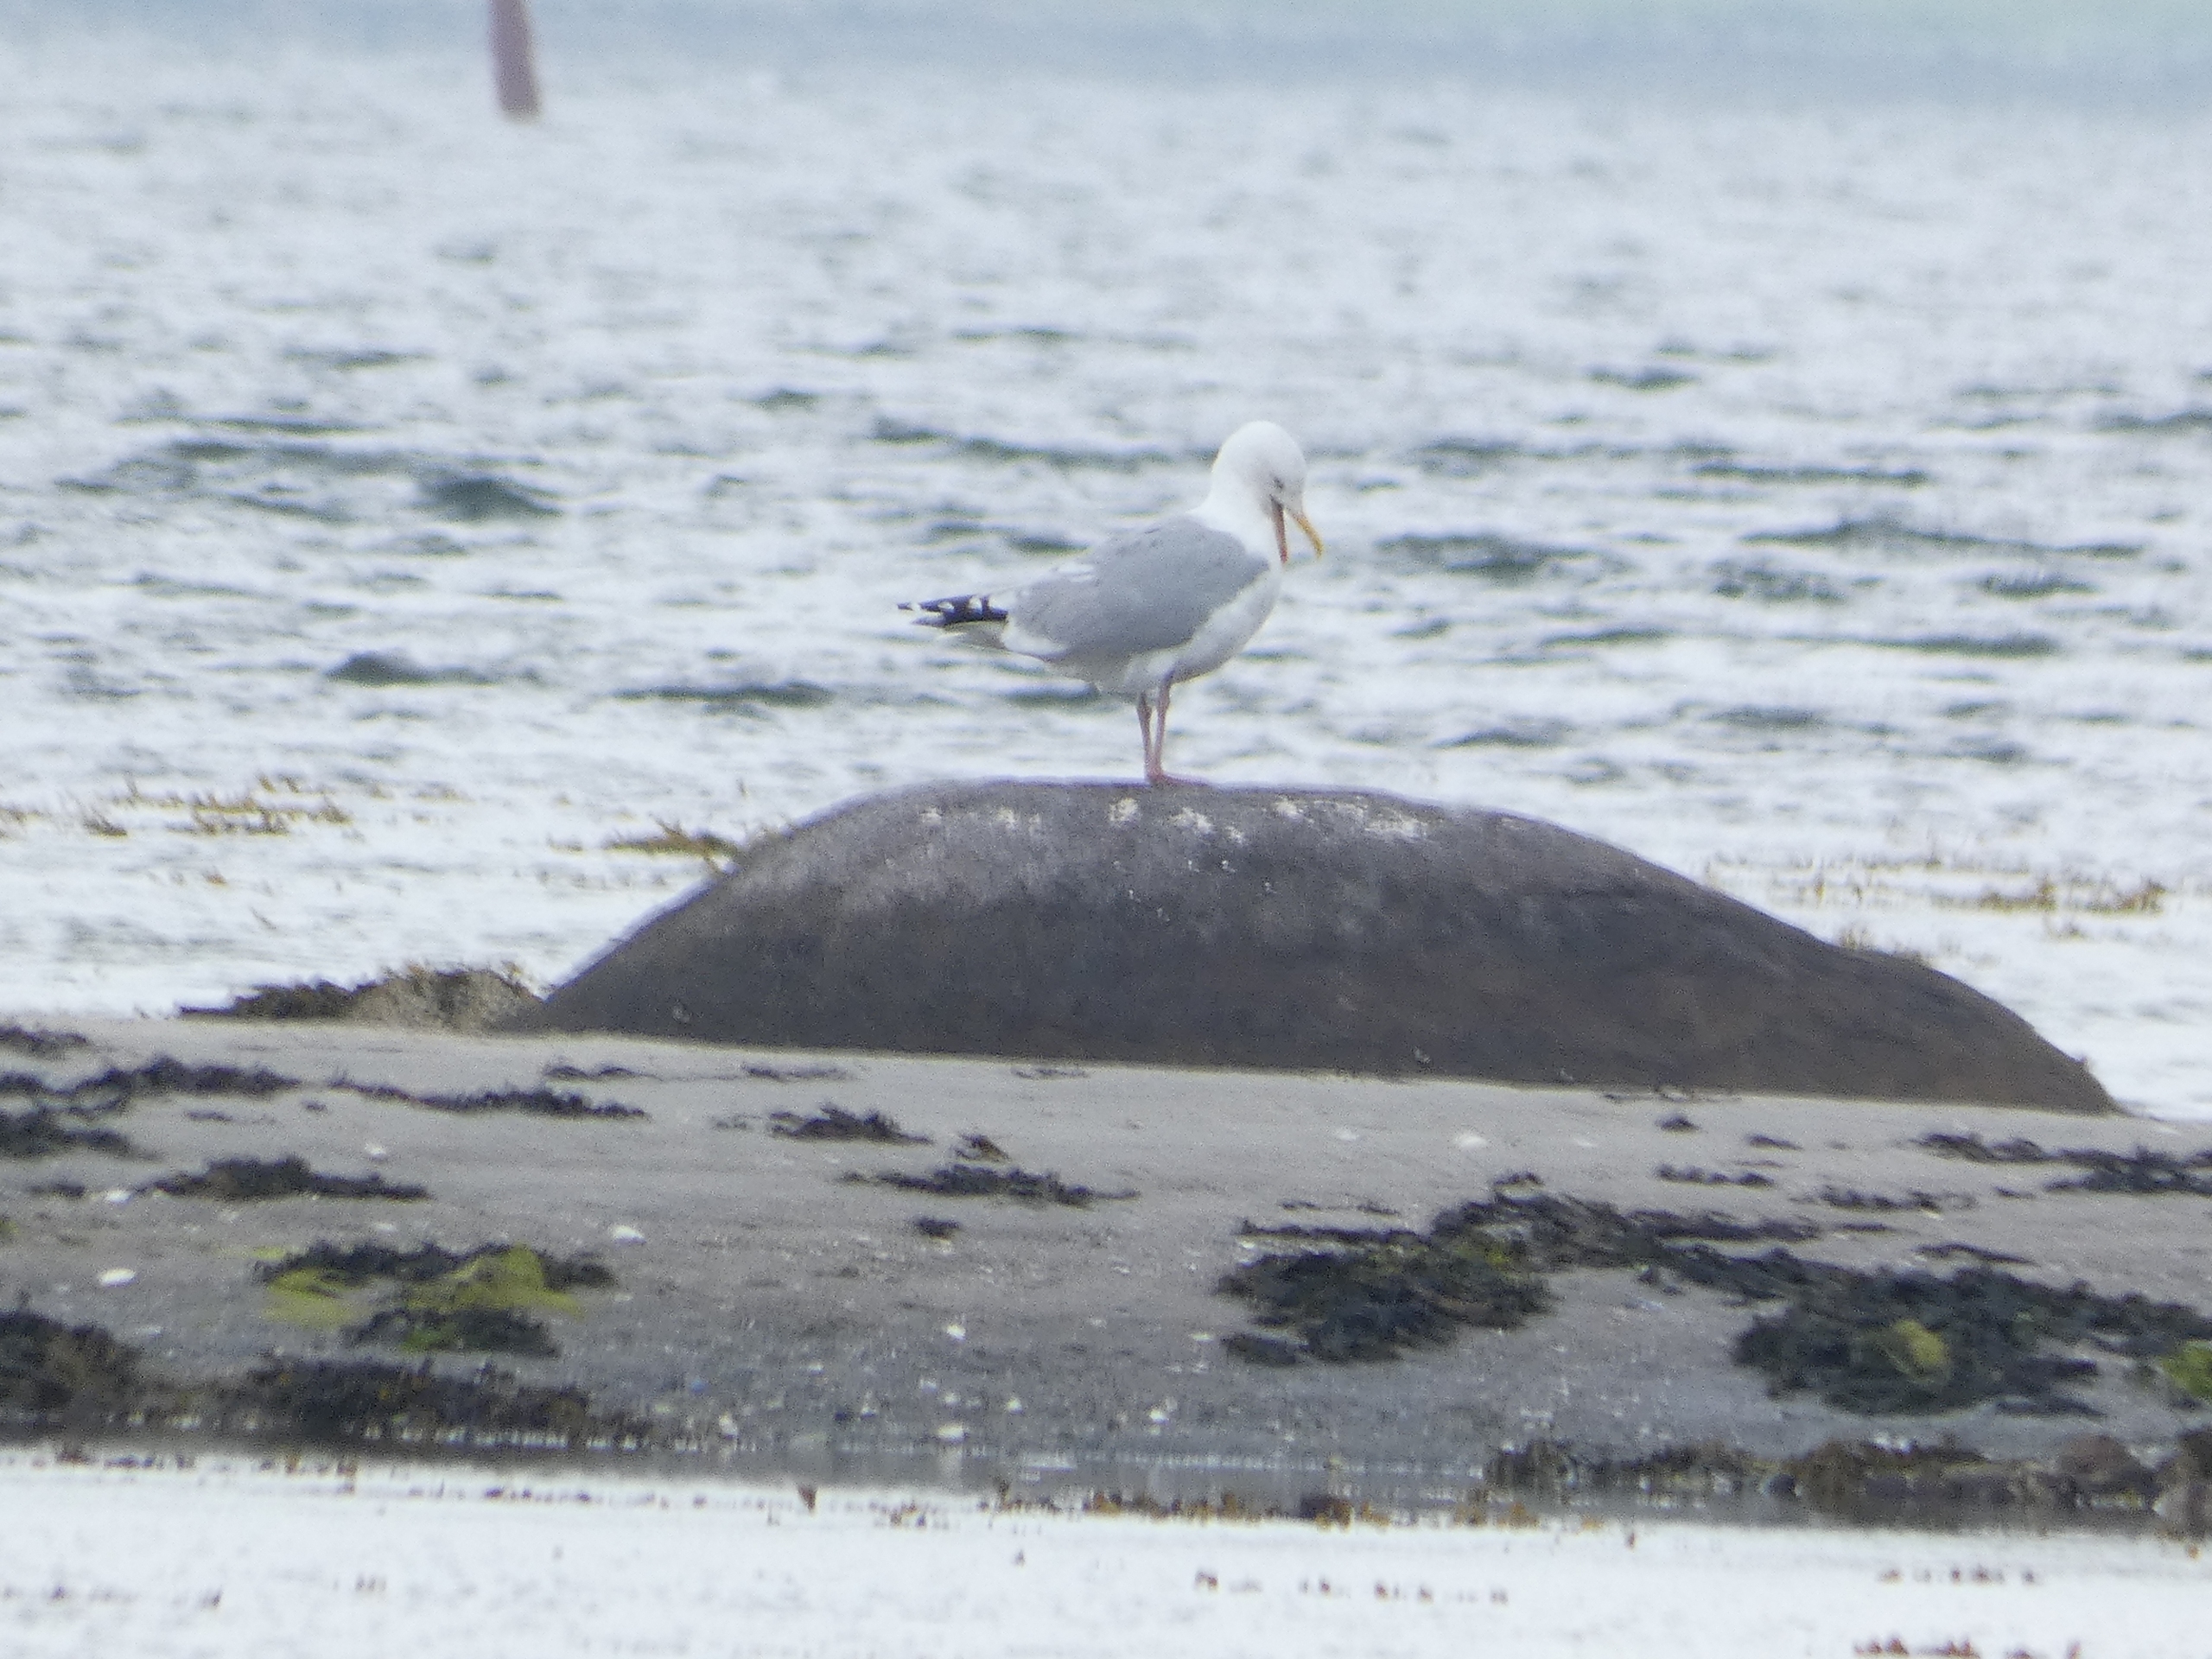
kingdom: Animalia
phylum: Chordata
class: Aves
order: Charadriiformes
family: Laridae
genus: Larus
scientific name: Larus argentatus
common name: Sølvmåge
